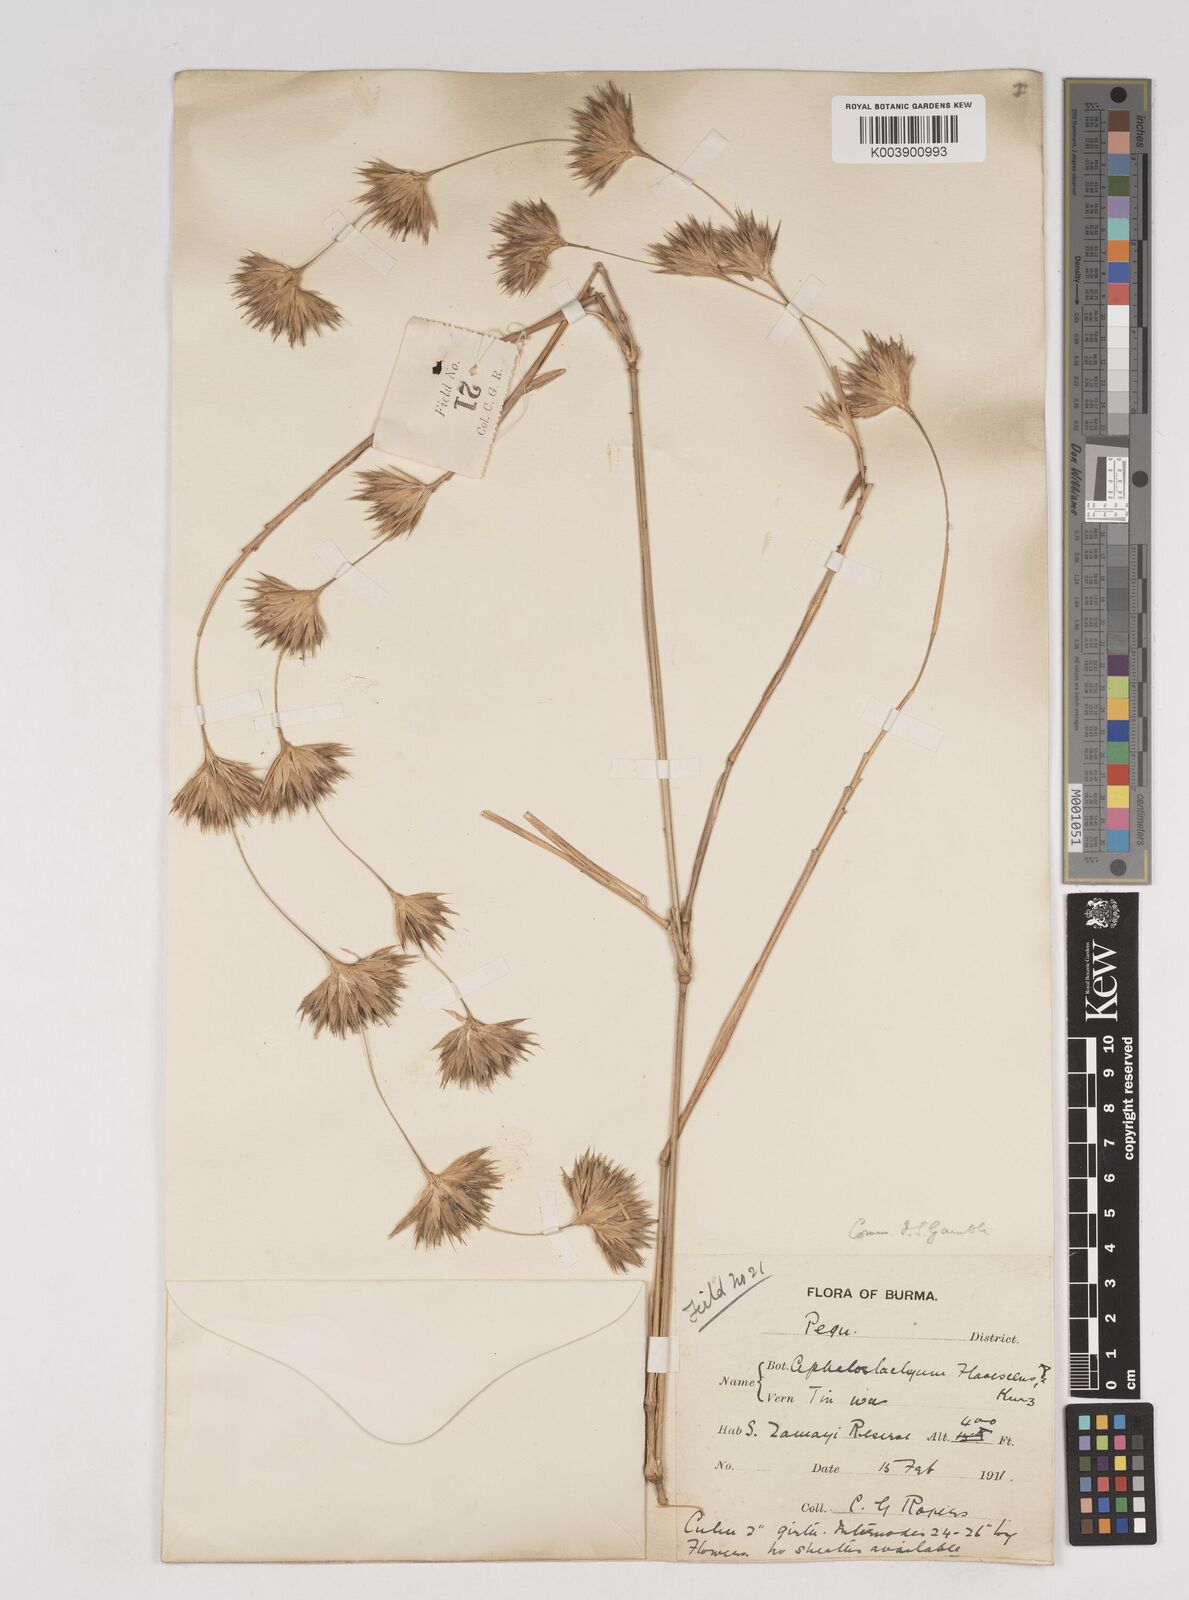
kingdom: Plantae
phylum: Tracheophyta
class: Liliopsida
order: Poales
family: Poaceae
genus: Cephalostachyum
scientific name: Cephalostachyum flavescens
